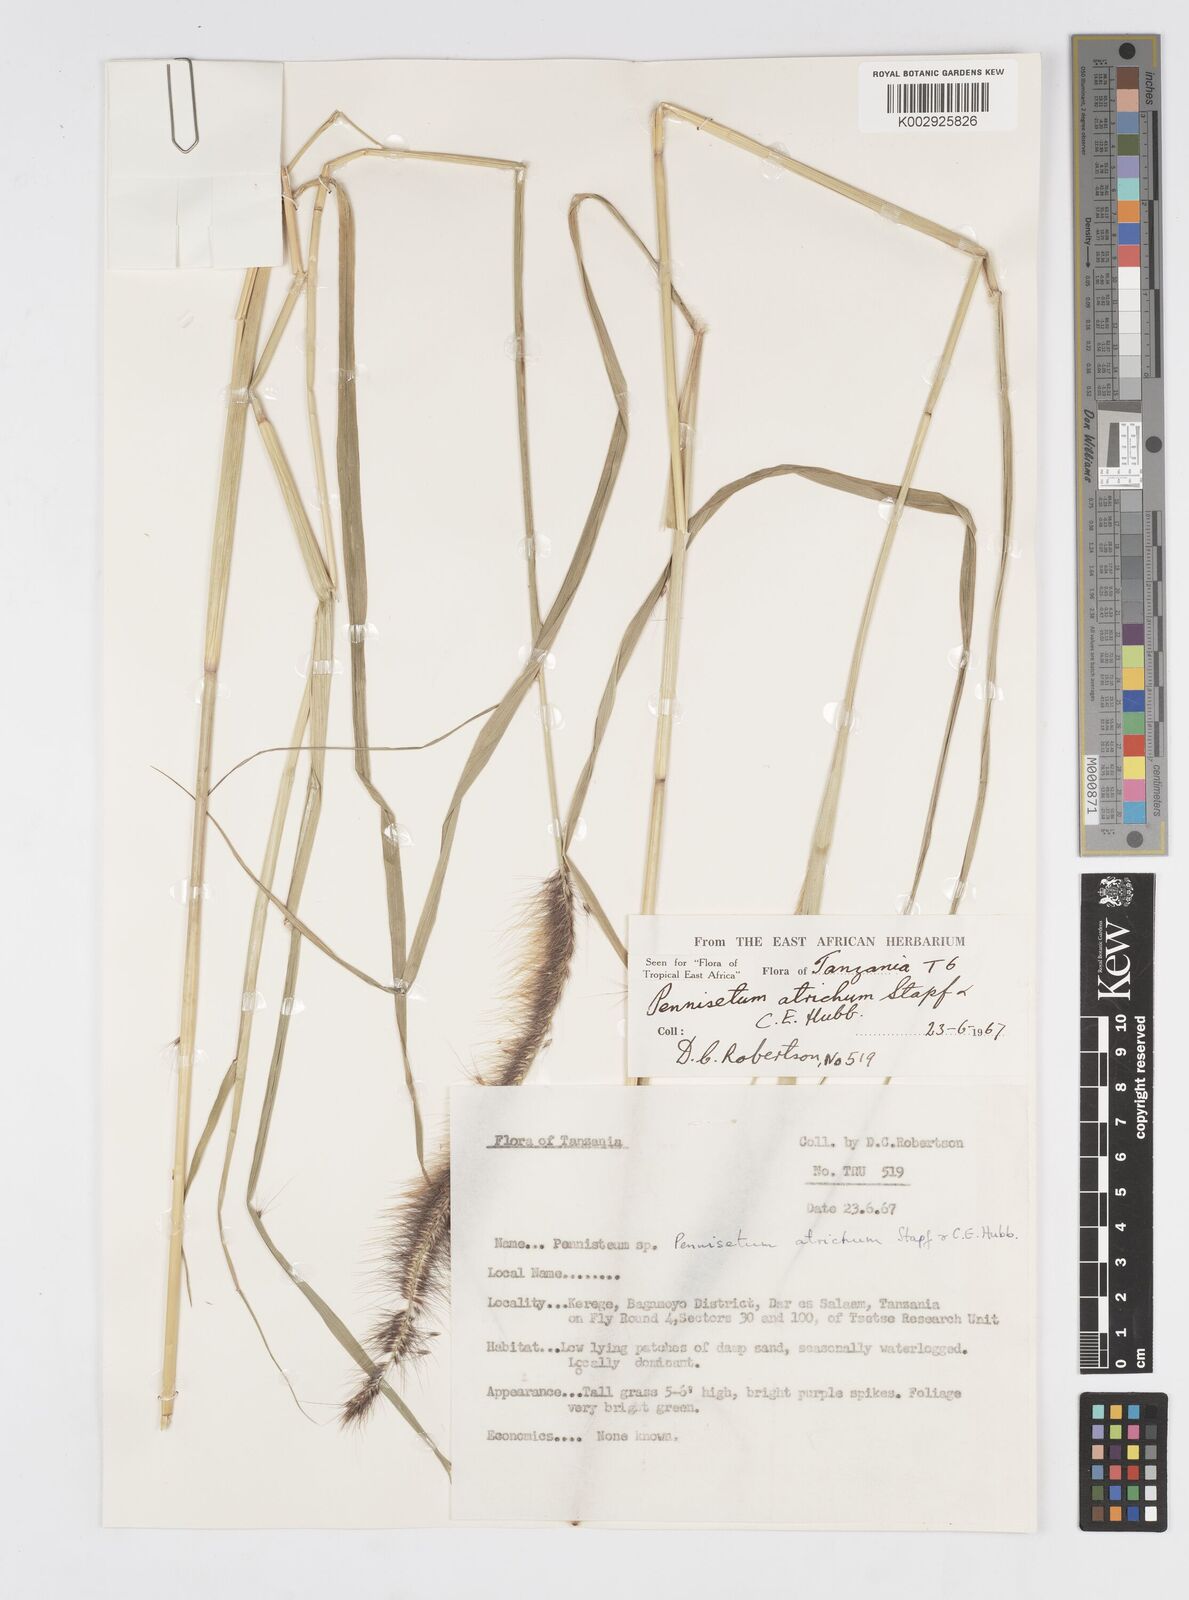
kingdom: Plantae
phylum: Tracheophyta
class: Liliopsida
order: Poales
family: Poaceae
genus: Cenchrus
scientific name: Cenchrus setosus
